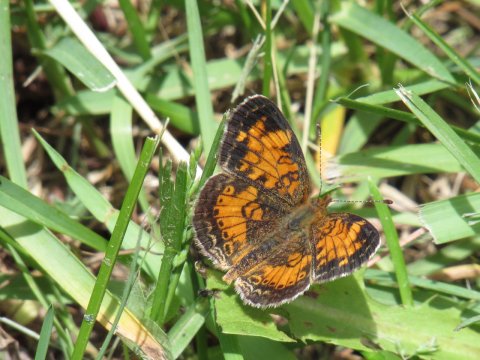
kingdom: Animalia
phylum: Arthropoda
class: Insecta
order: Lepidoptera
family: Nymphalidae
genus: Phyciodes
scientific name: Phyciodes tharos
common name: Pearl Crescent
